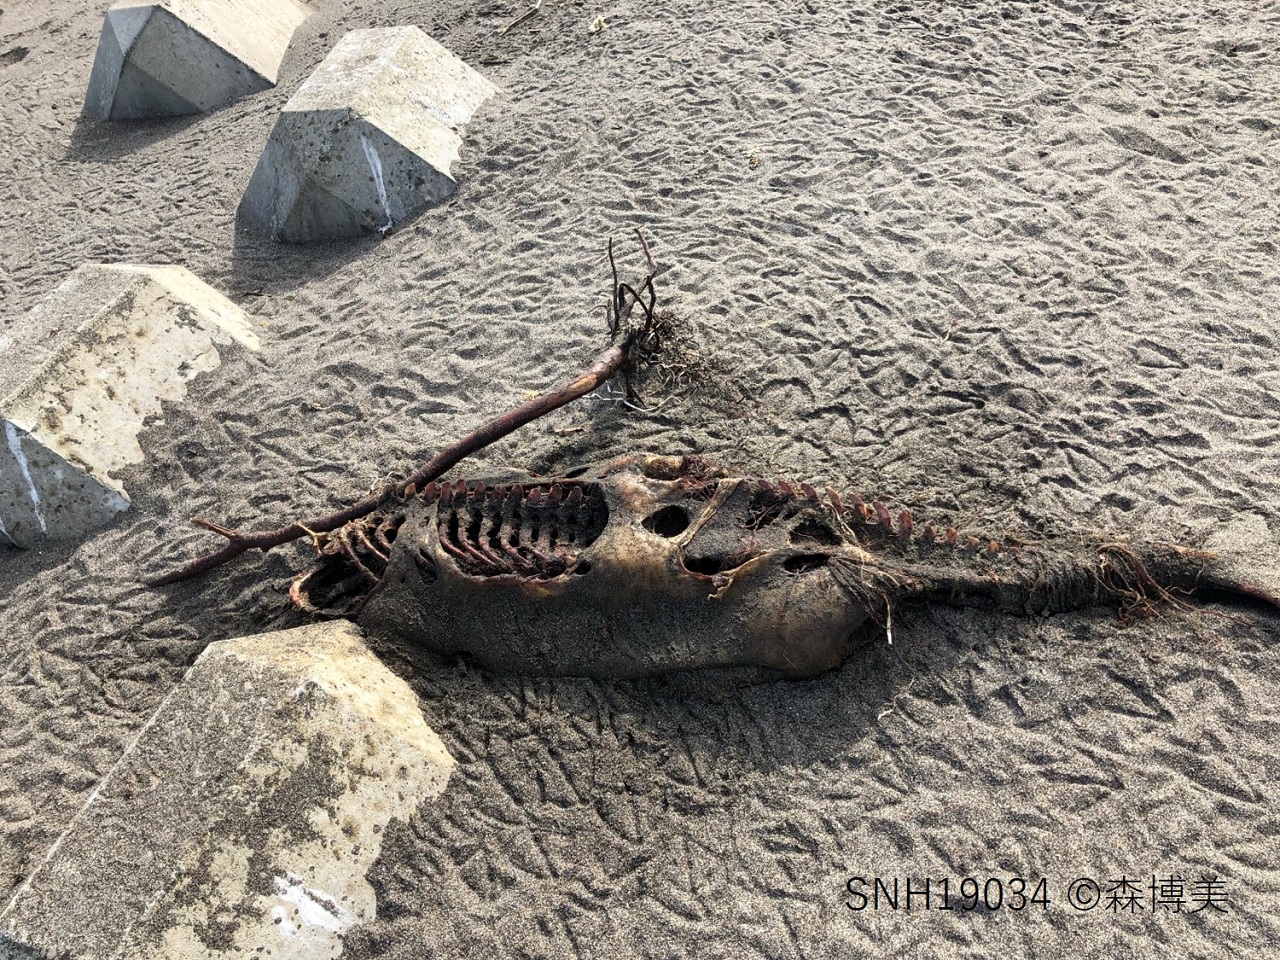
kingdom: Animalia
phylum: Chordata
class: Mammalia
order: Cetacea
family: Phocoenidae
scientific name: Phocoenidae
